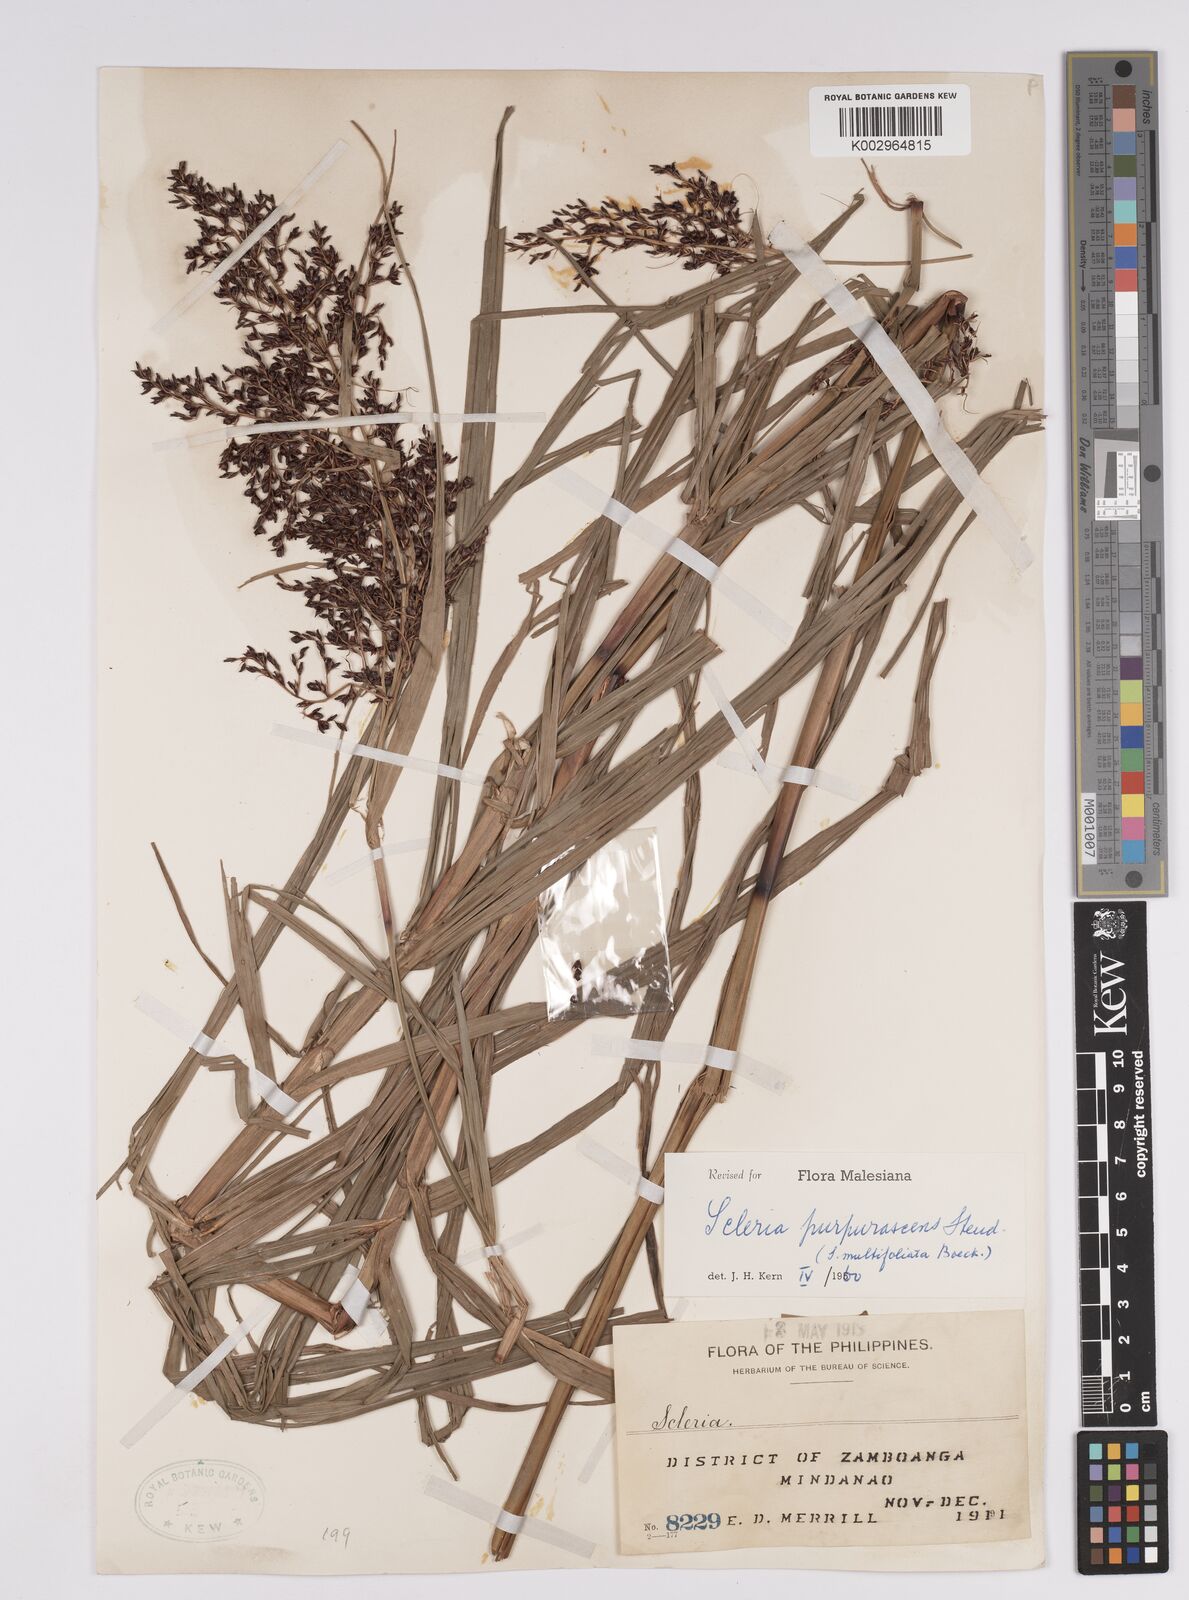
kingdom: Plantae
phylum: Tracheophyta
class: Liliopsida
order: Poales
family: Cyperaceae
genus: Scleria
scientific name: Scleria purpurascens
